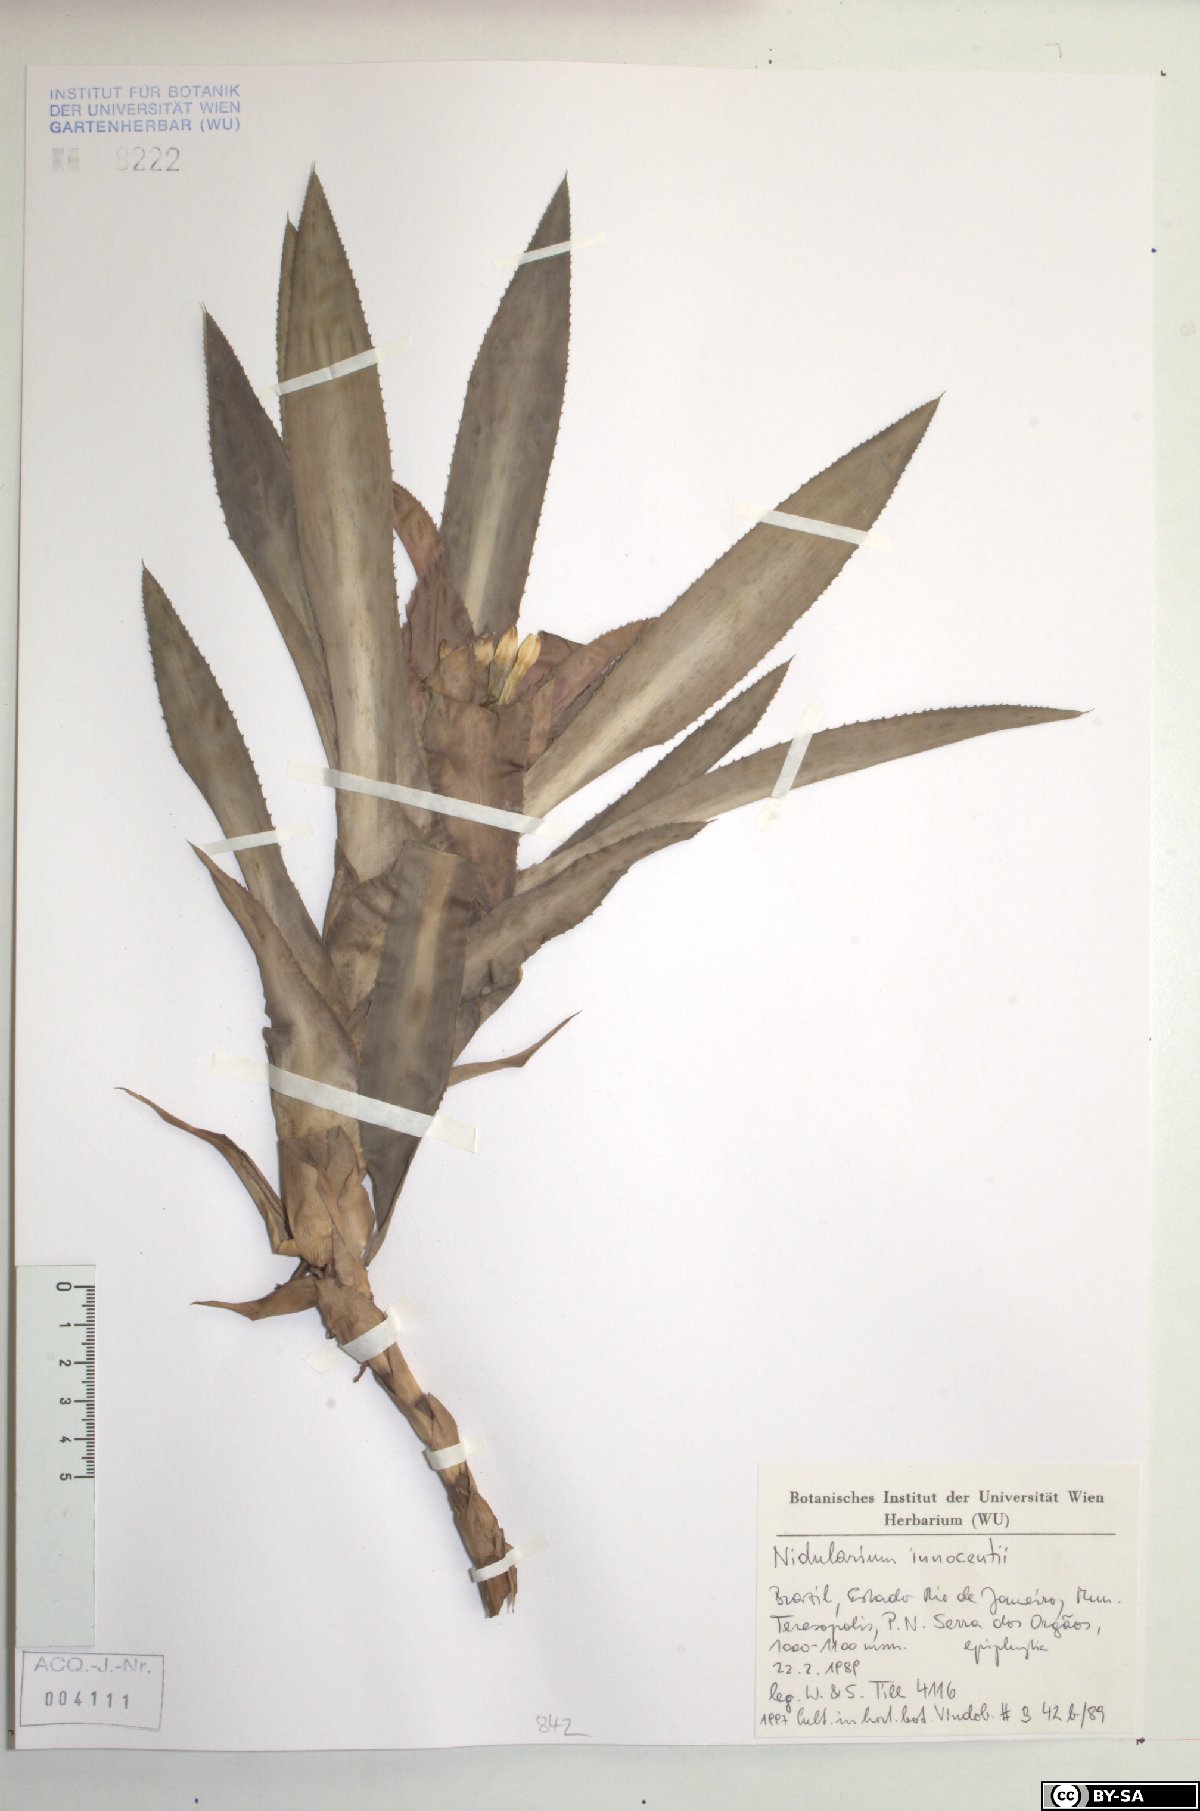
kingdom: Plantae
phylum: Tracheophyta
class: Liliopsida
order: Poales
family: Bromeliaceae
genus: Nidularium
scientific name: Nidularium innocentii
